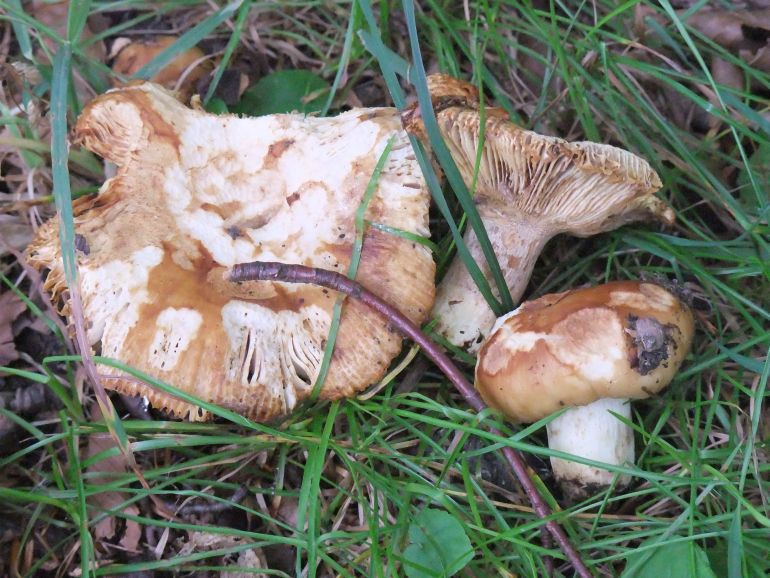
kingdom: Fungi
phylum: Basidiomycota
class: Agaricomycetes
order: Russulales
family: Russulaceae
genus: Russula
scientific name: Russula foetens
